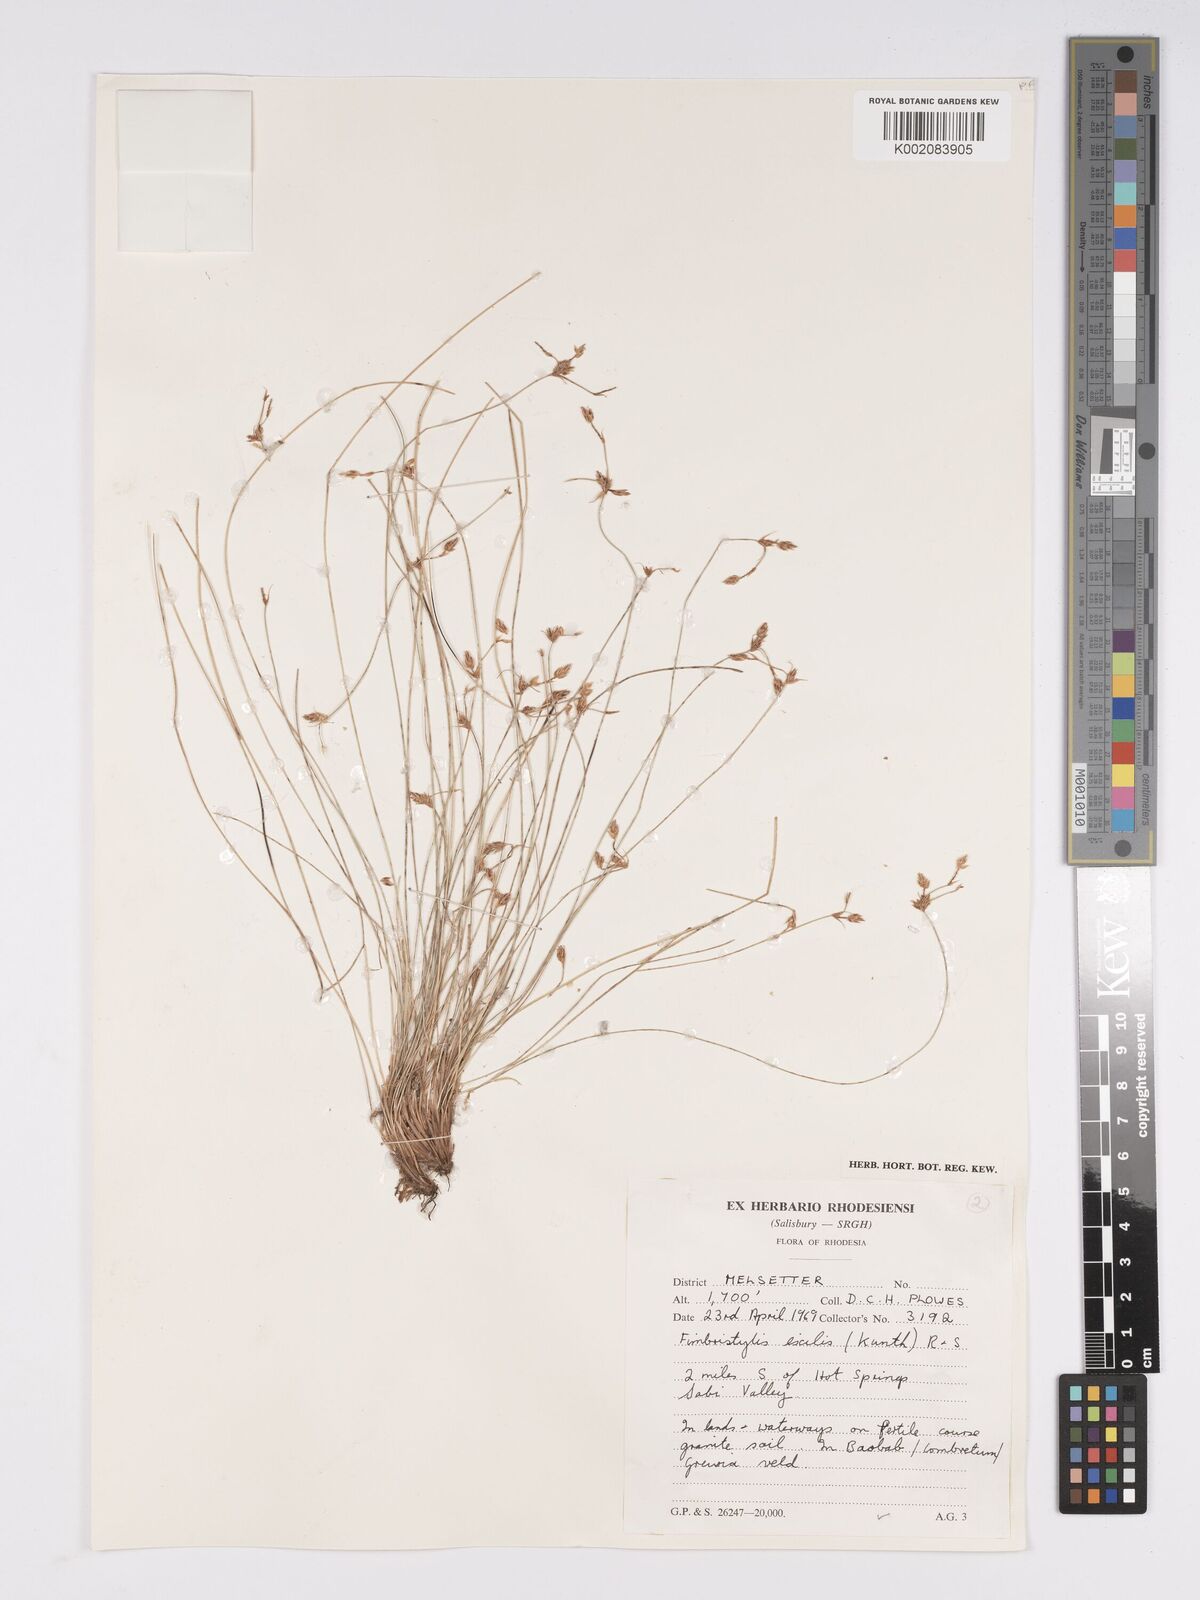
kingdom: Plantae
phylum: Tracheophyta
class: Liliopsida
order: Poales
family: Cyperaceae
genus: Bulbostylis
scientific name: Bulbostylis hispidula
